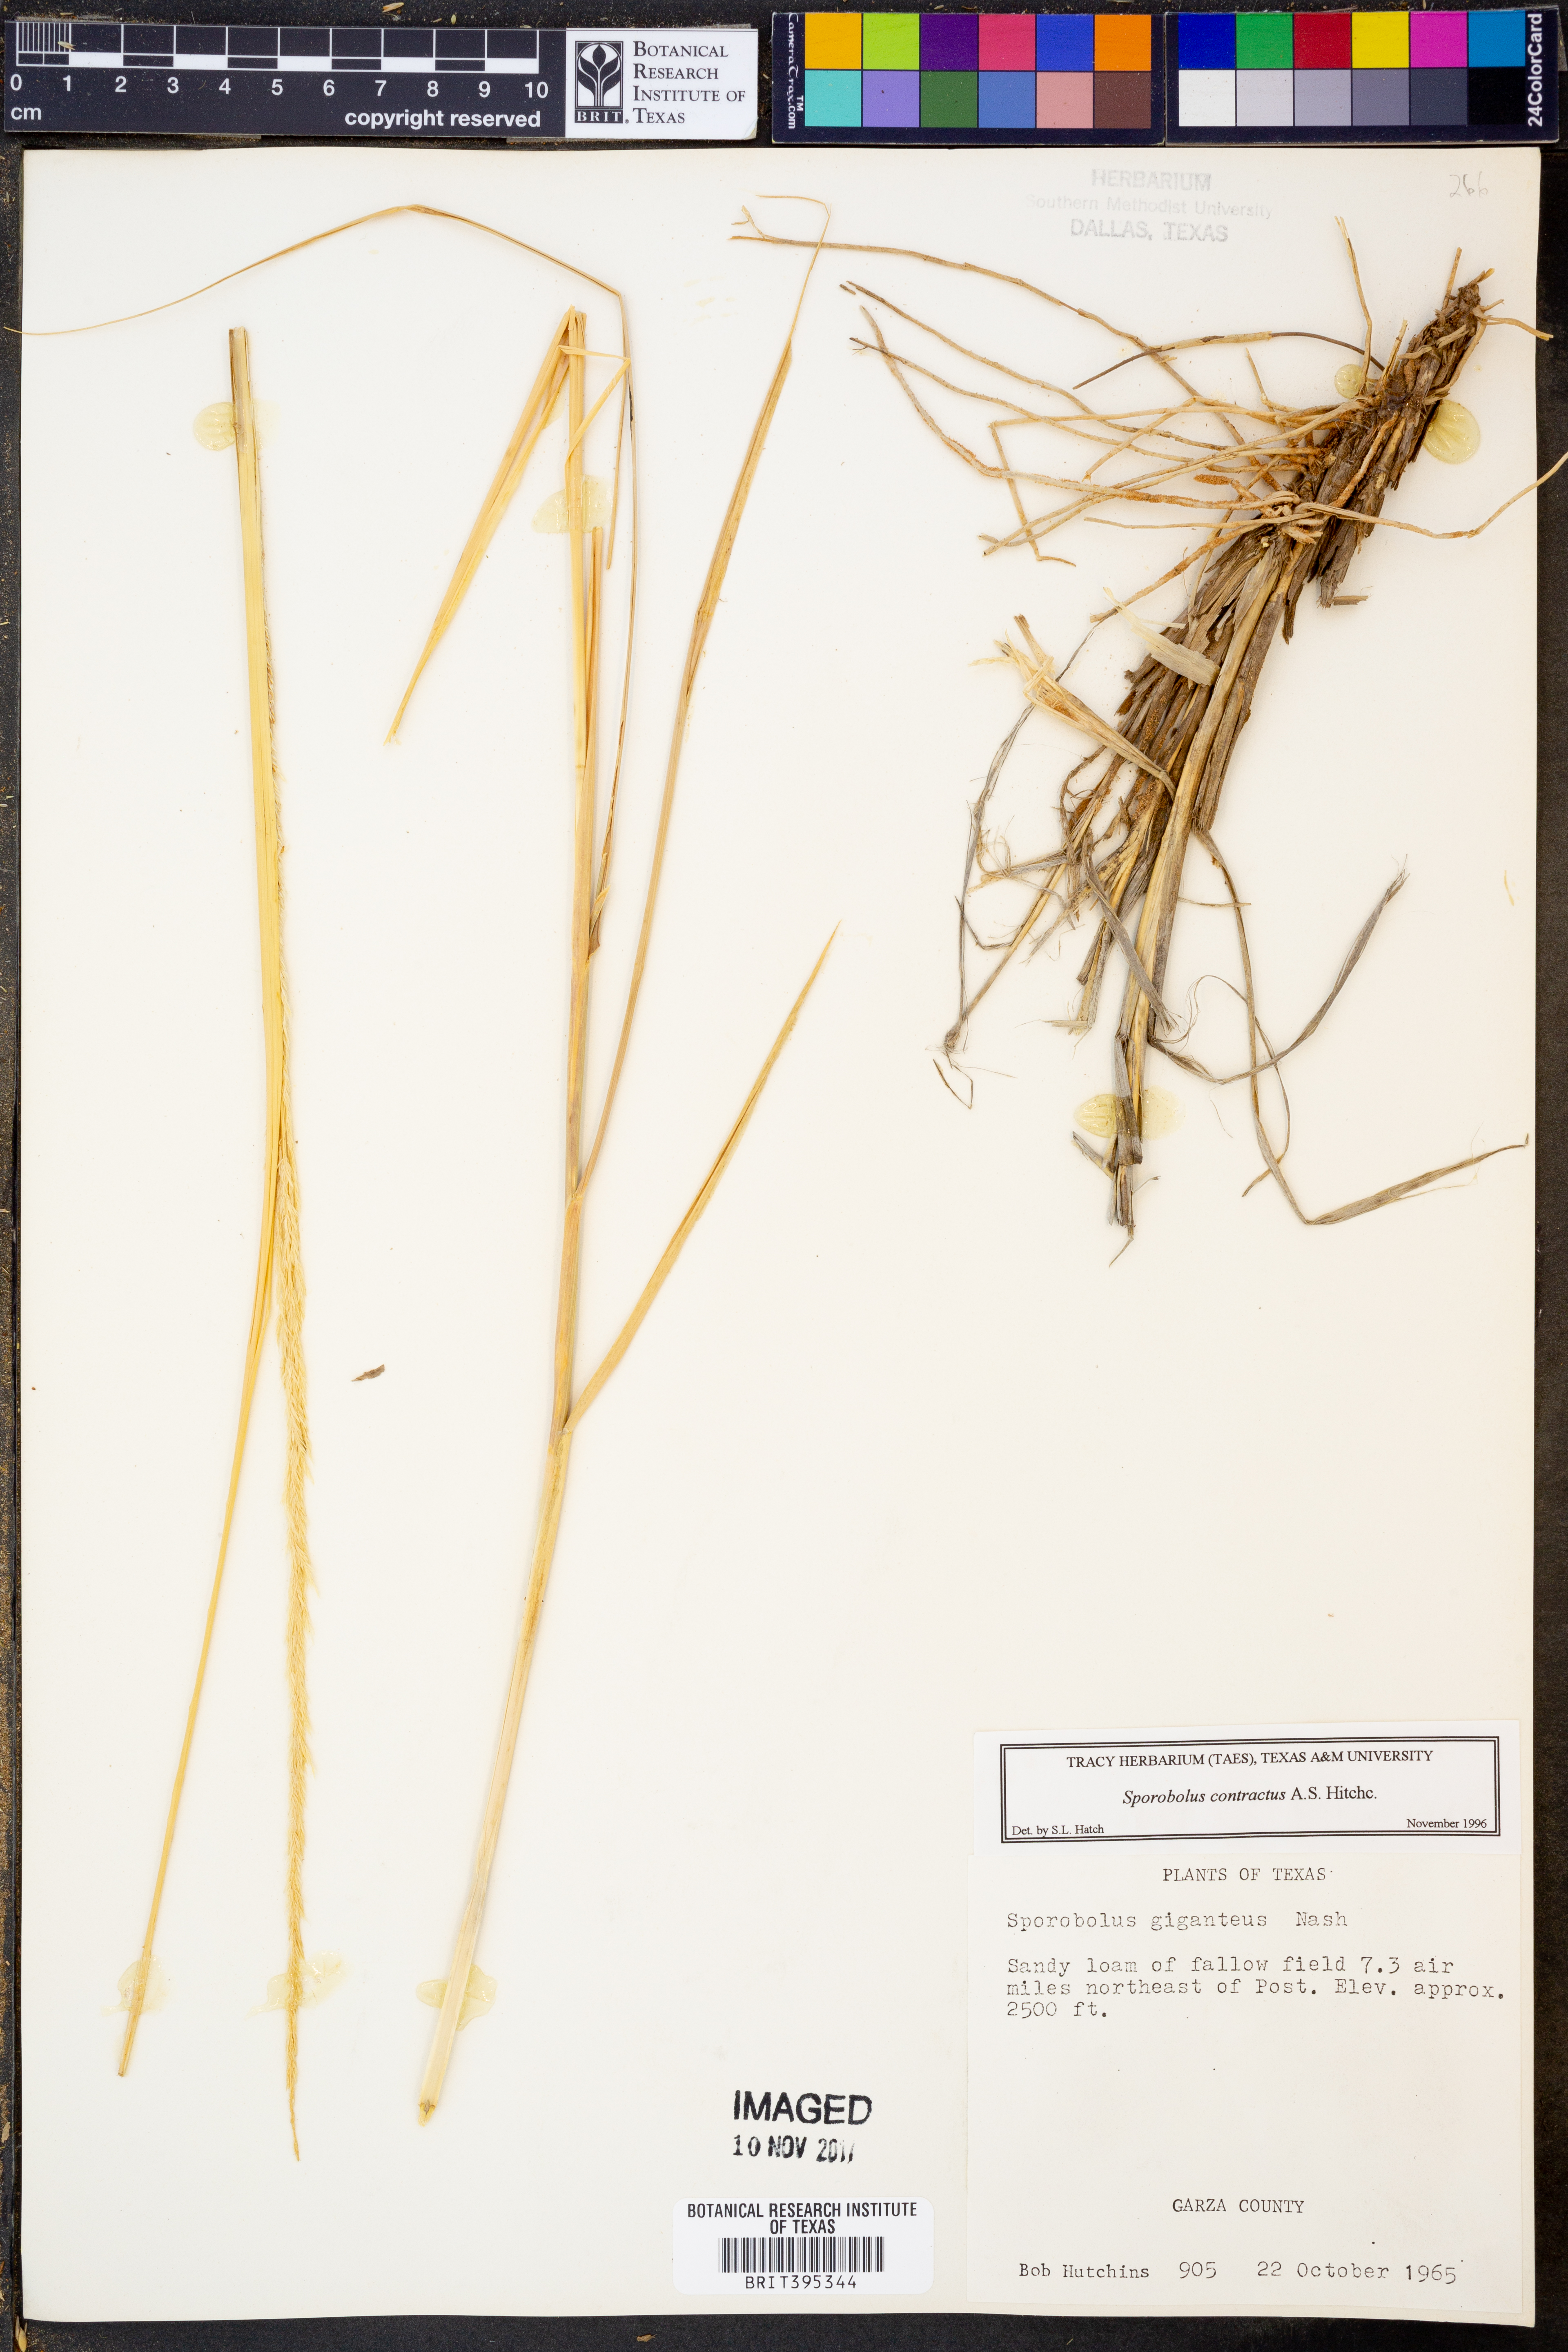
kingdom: Plantae
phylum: Tracheophyta
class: Liliopsida
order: Poales
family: Poaceae
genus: Sporobolus
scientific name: Sporobolus contractus
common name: Spike dropseed
